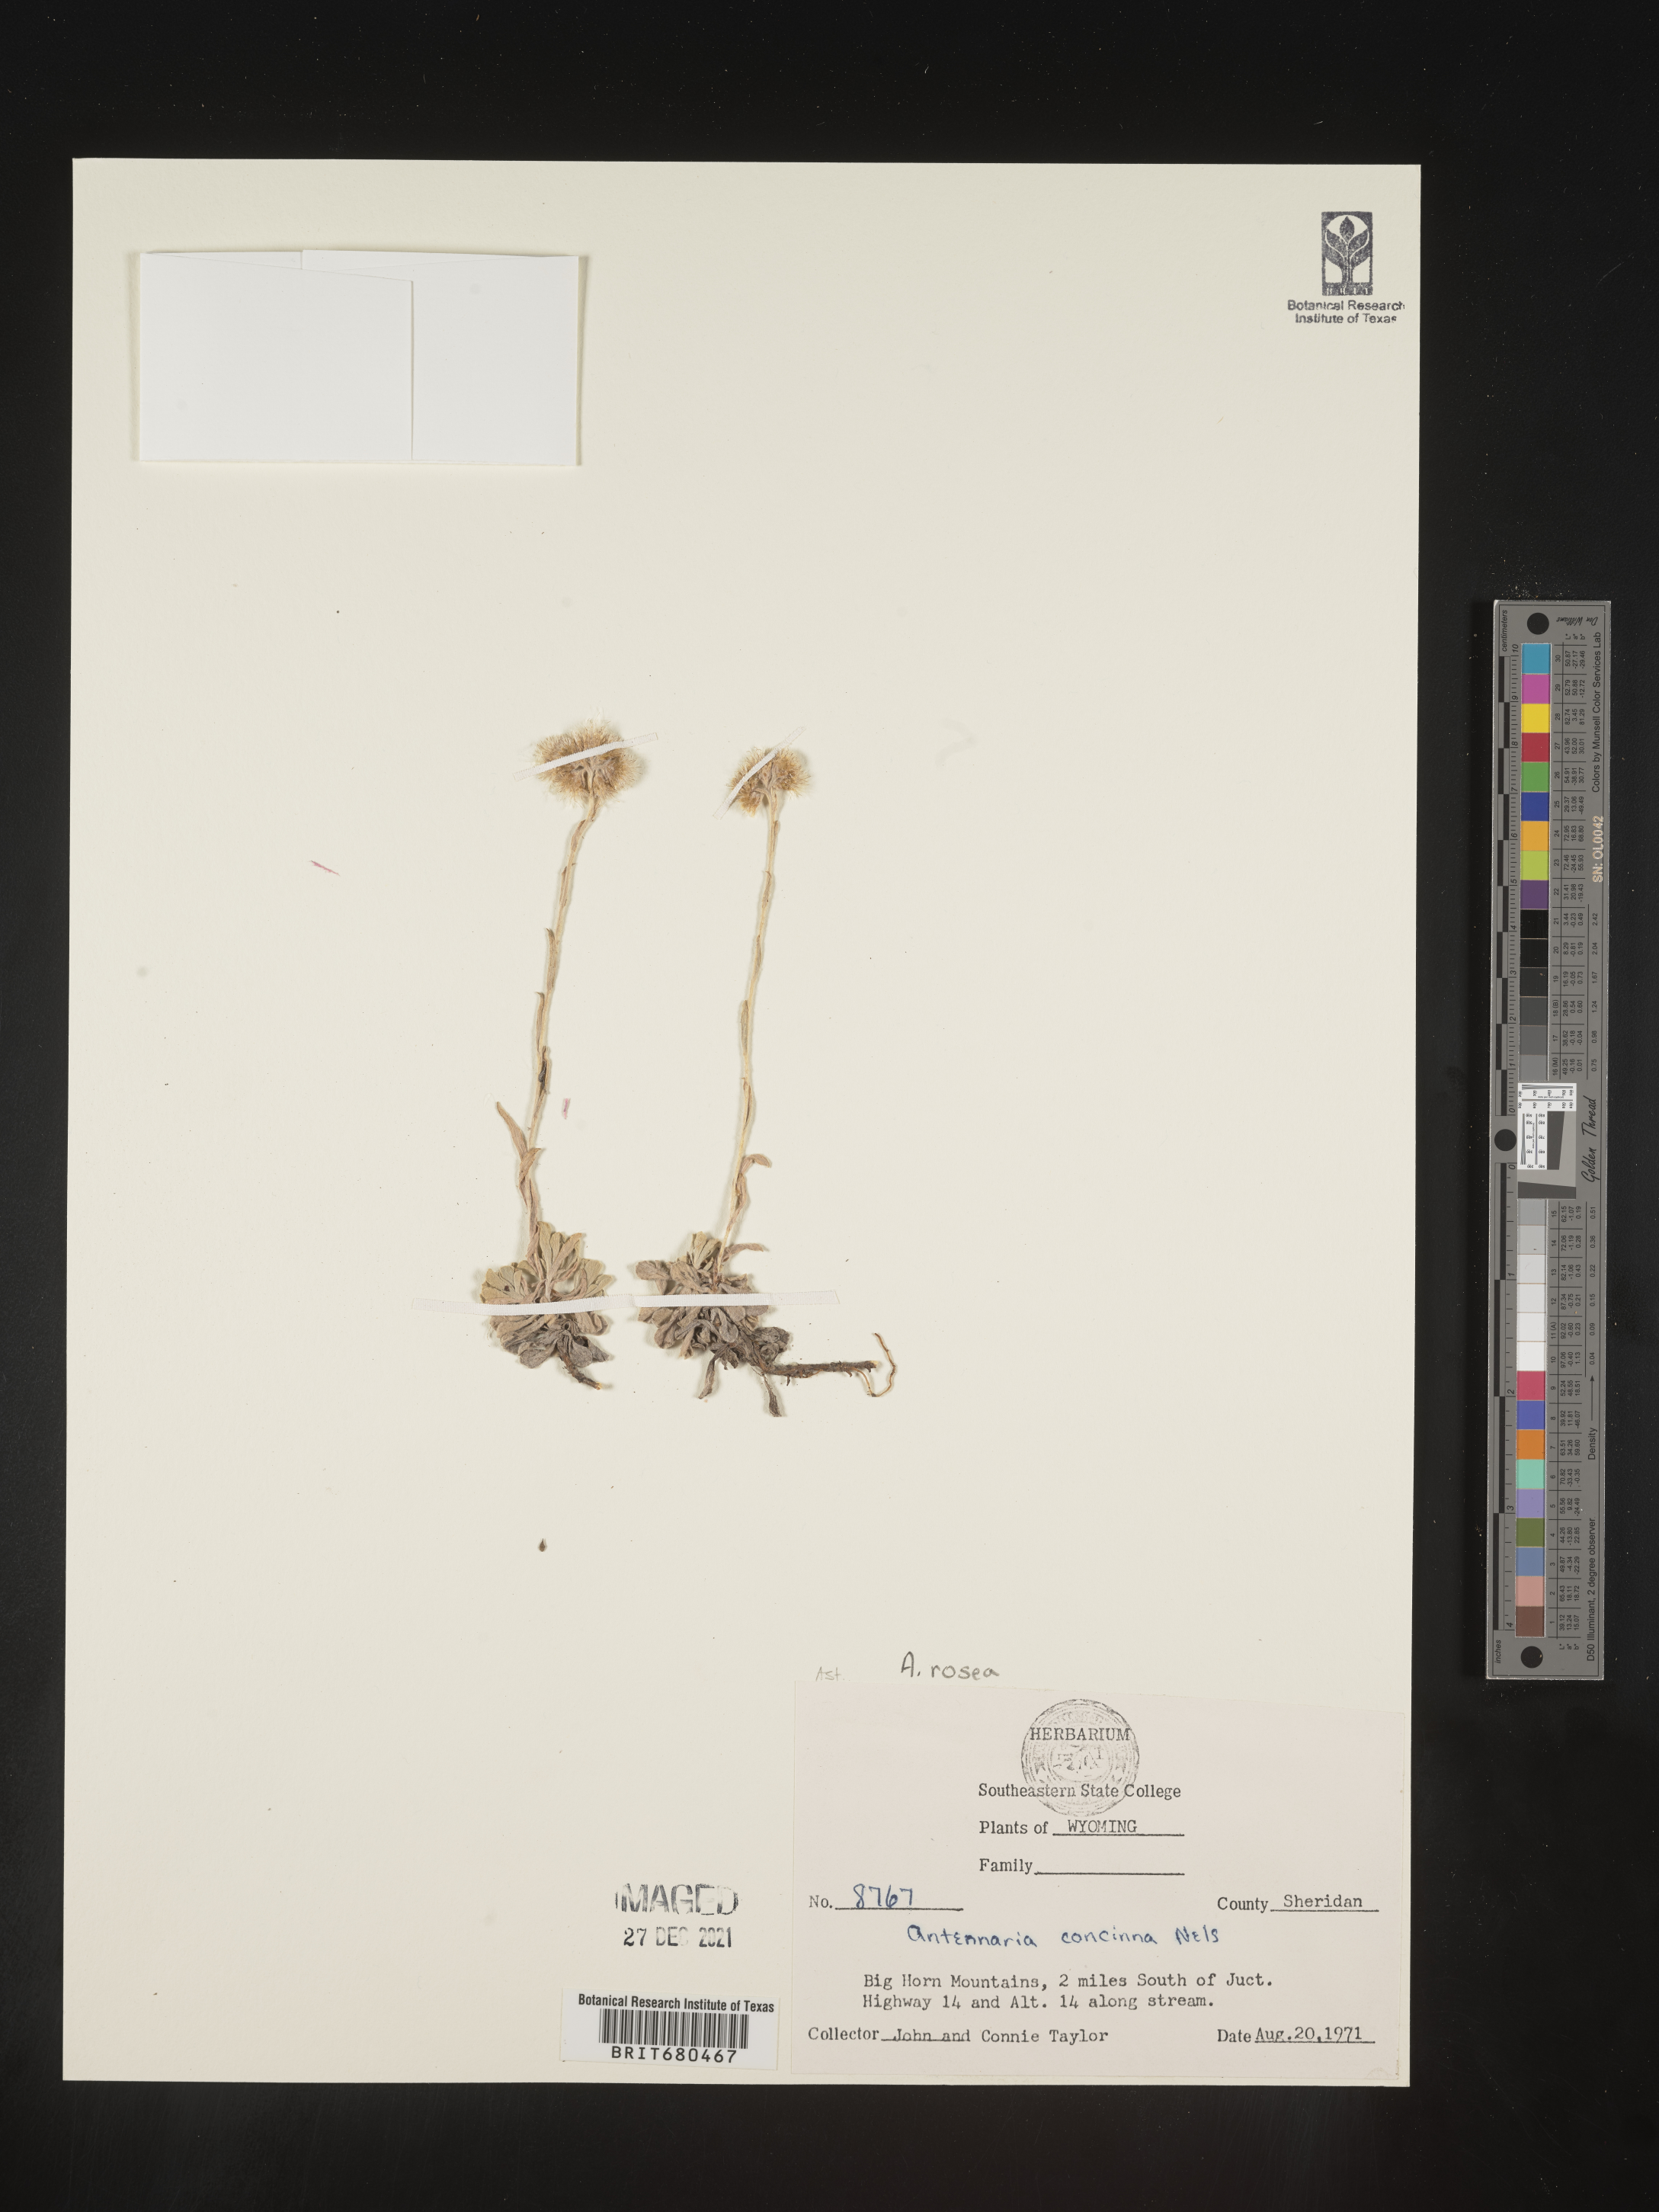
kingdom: Plantae
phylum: Tracheophyta
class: Magnoliopsida
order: Asterales
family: Asteraceae
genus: Antennaria
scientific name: Antennaria rosea
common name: Rosy pussytoes
